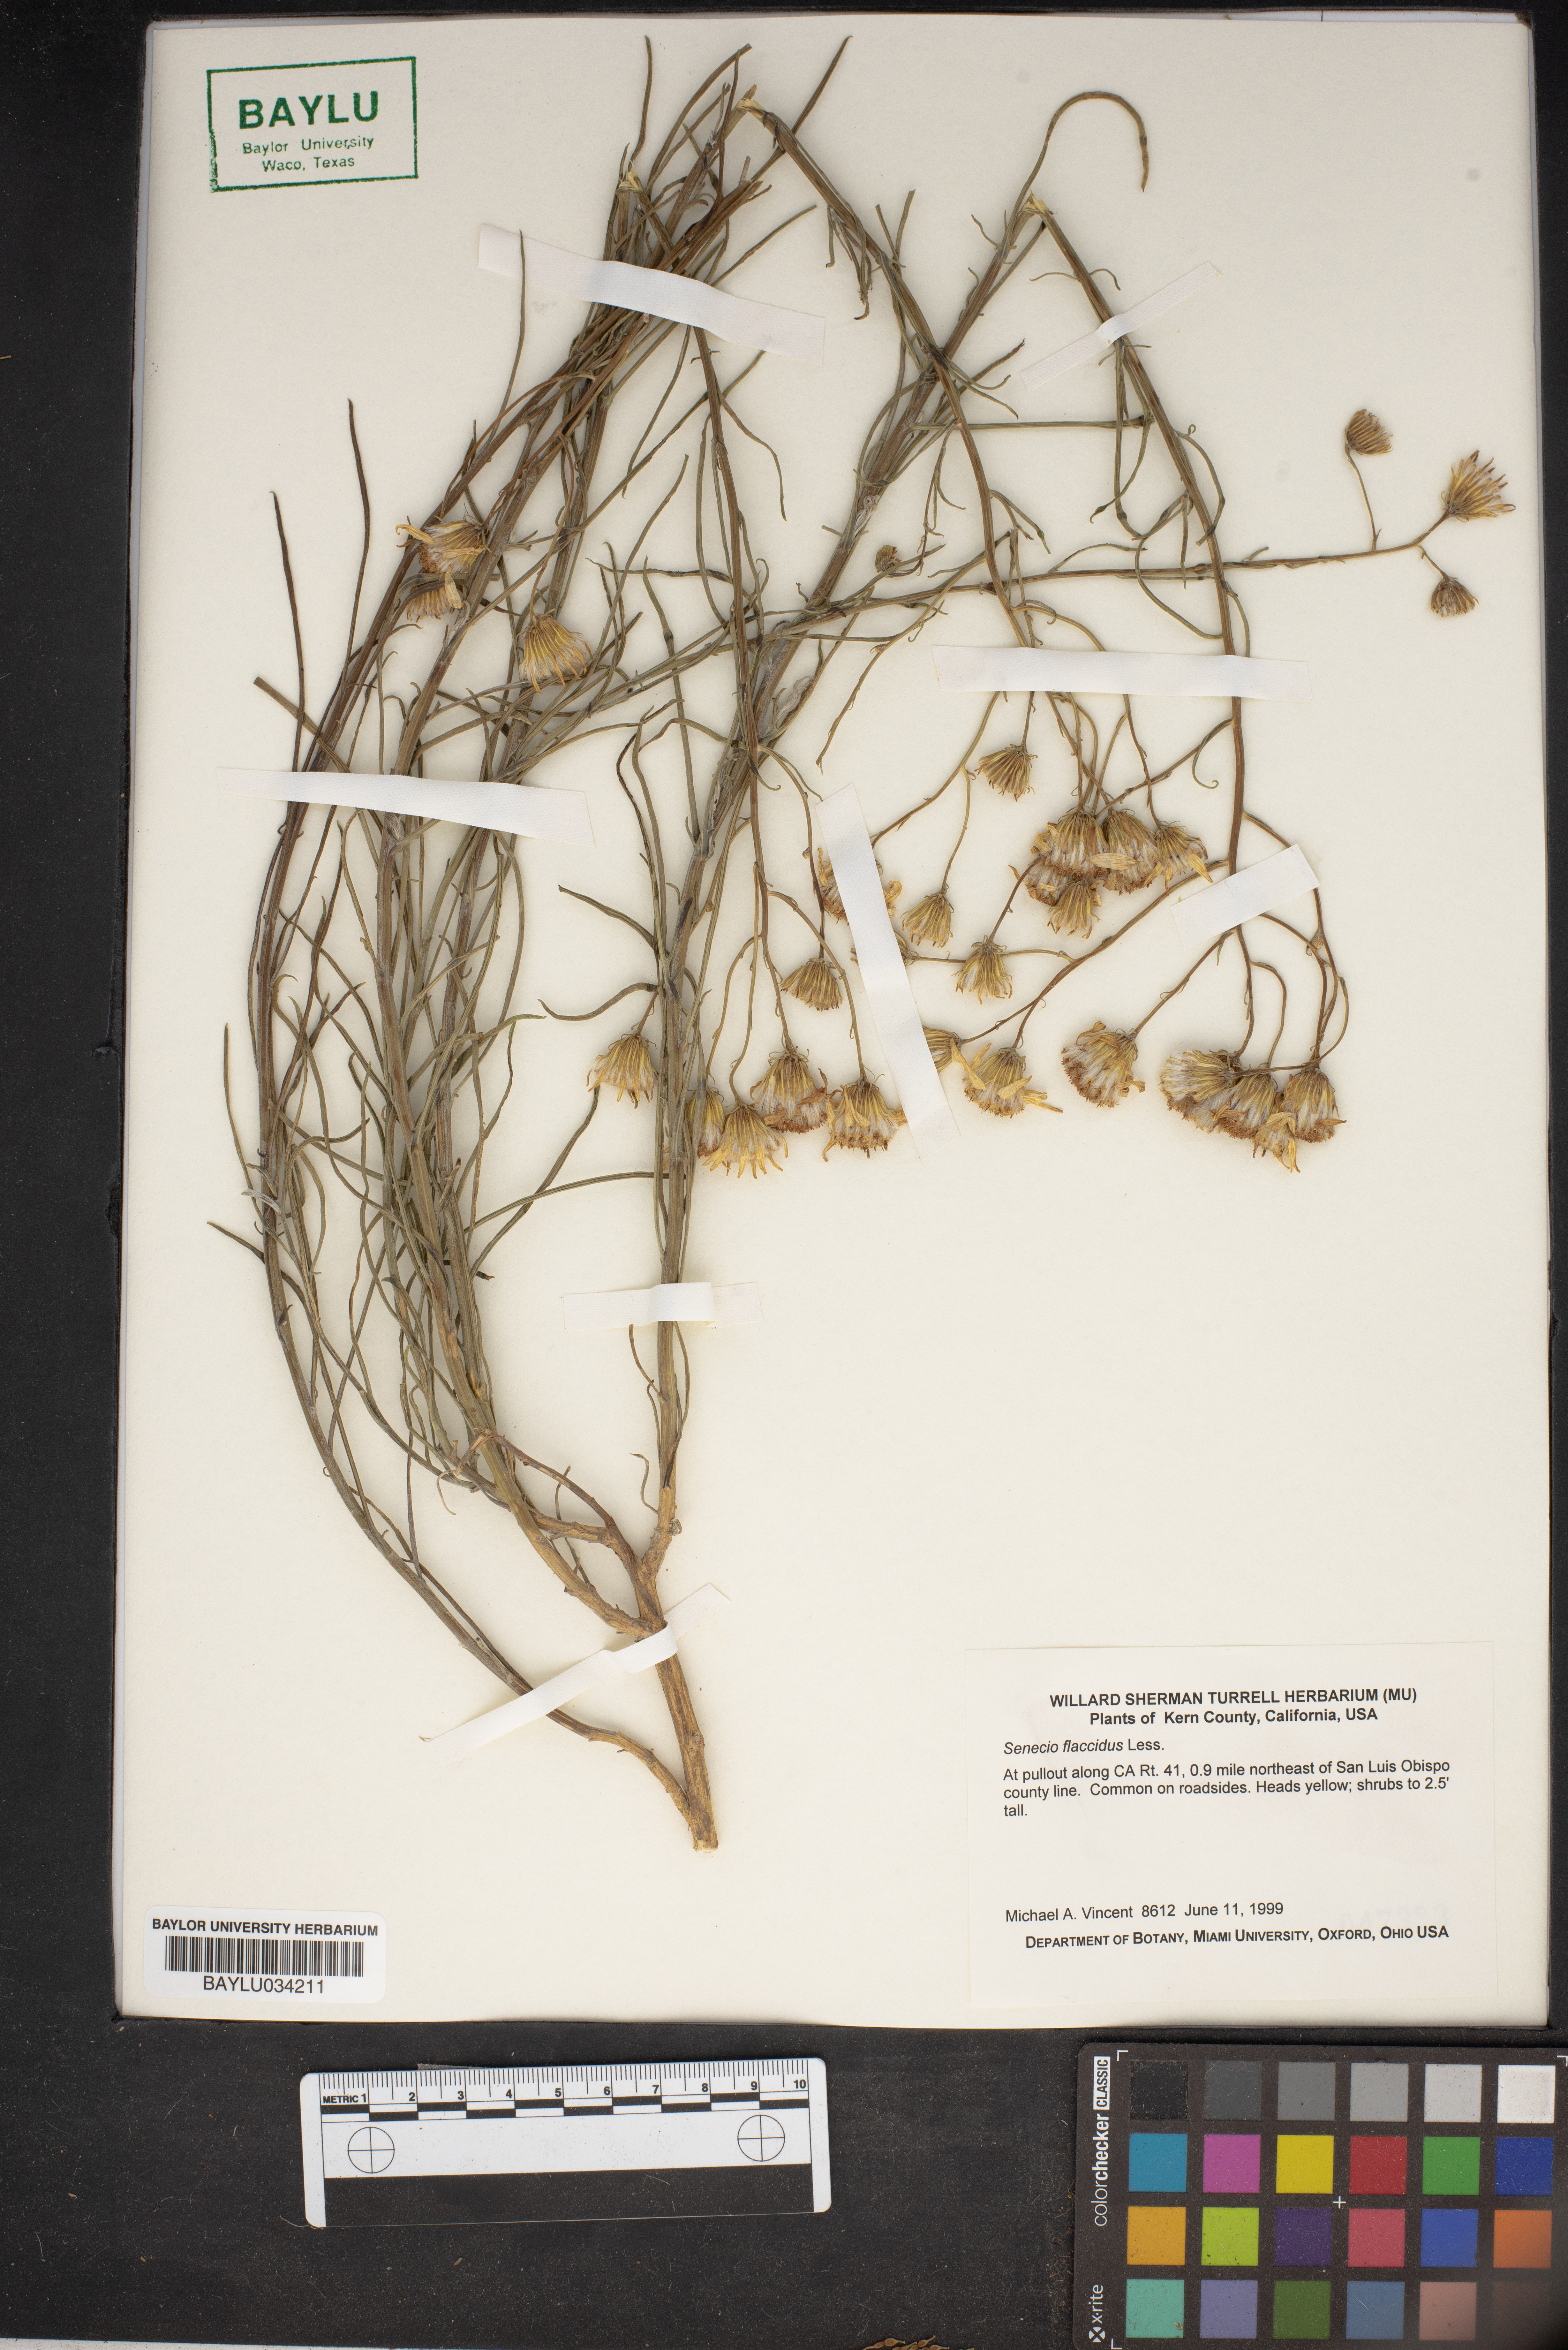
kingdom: Plantae
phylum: Tracheophyta
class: Magnoliopsida
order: Asterales
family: Asteraceae
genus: Senecio
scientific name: Senecio flaccidus
